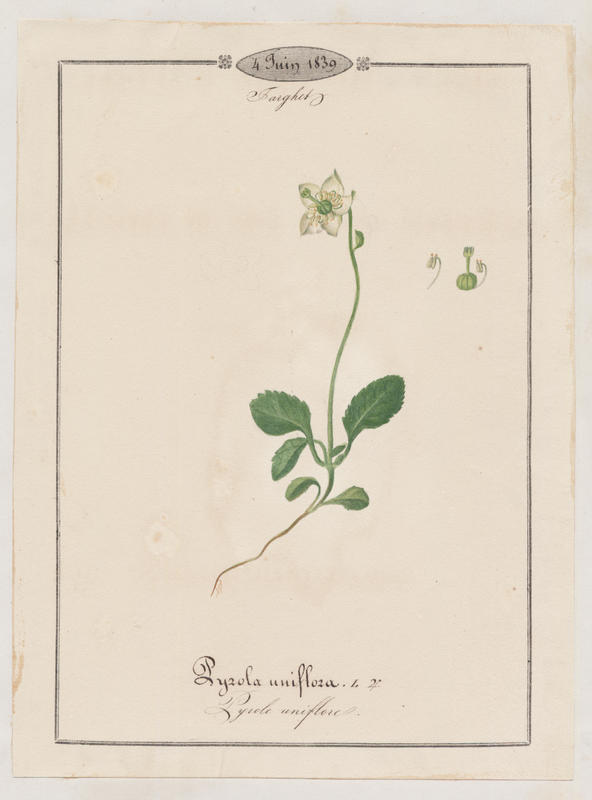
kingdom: Plantae
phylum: Tracheophyta
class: Magnoliopsida
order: Ericales
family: Ericaceae
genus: Moneses
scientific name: Moneses uniflora
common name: One-flowered wintergreen
